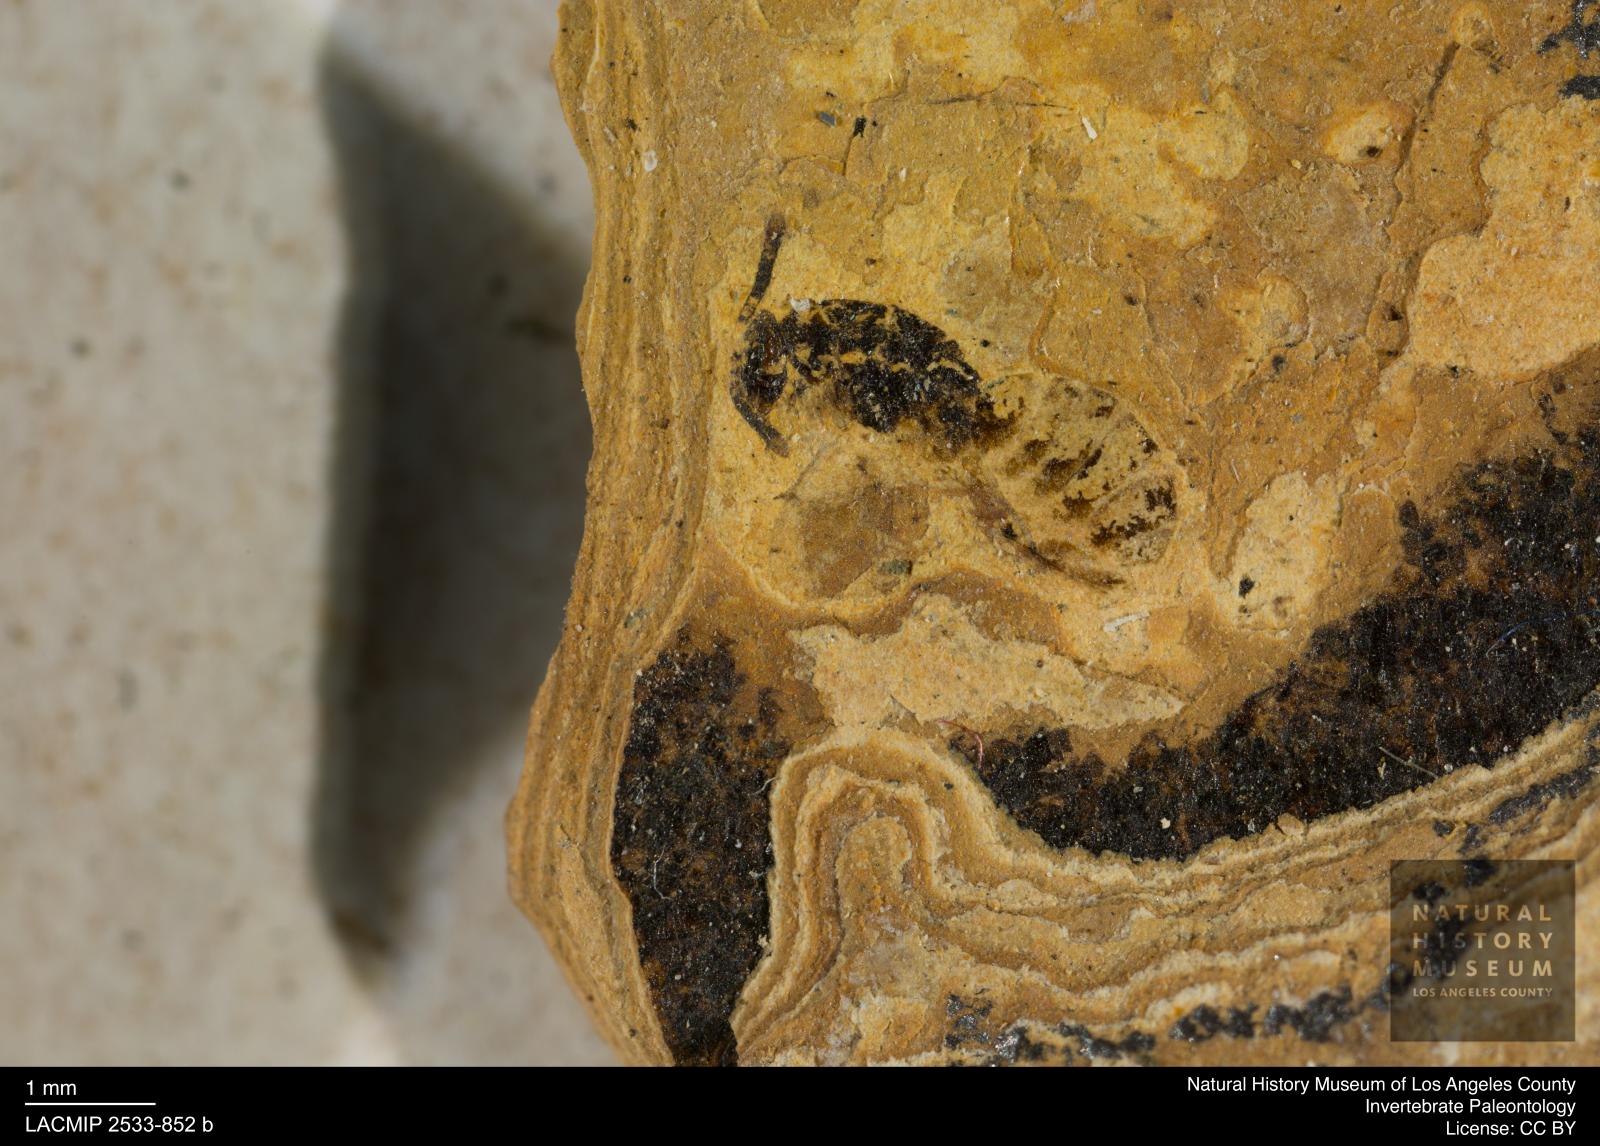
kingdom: Animalia
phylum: Arthropoda
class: Insecta
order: Hymenoptera
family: Pteromalidae
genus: Pteromalus
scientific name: Pteromalus pulchellus
